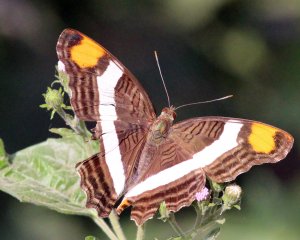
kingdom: Animalia
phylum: Arthropoda
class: Insecta
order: Lepidoptera
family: Nymphalidae
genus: Limenitis
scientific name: Limenitis fessonia
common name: Band-celled Sister
